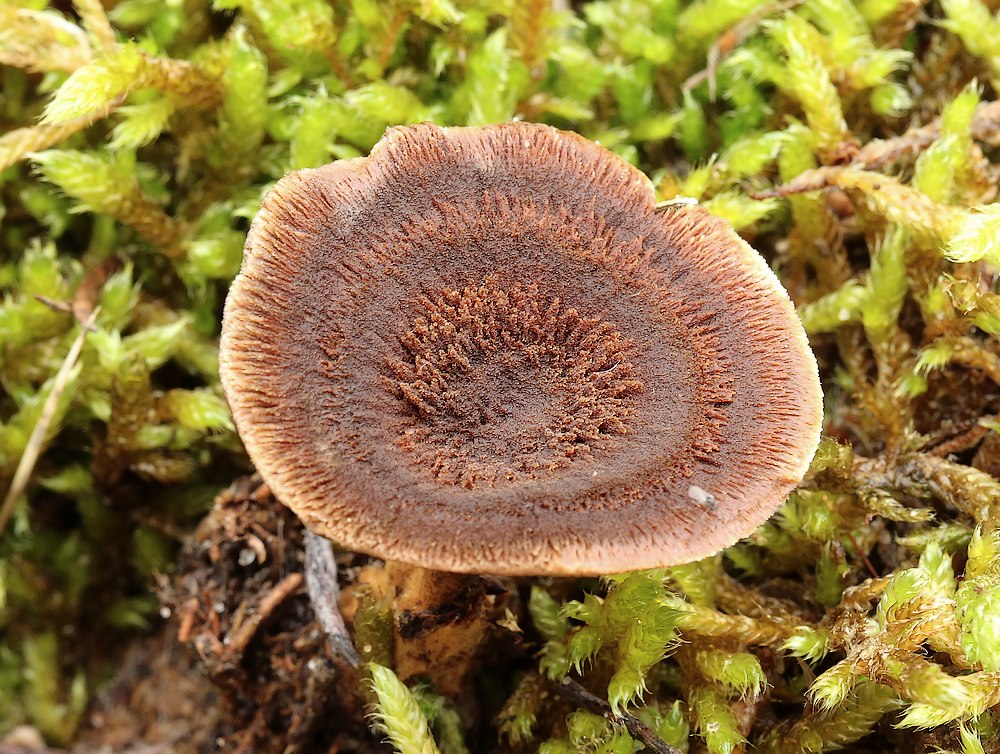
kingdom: Fungi
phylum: Basidiomycota
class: Agaricomycetes
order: Hymenochaetales
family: Hymenochaetaceae
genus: Coltricia
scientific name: Coltricia perennis
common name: almindelig sandporesvamp
